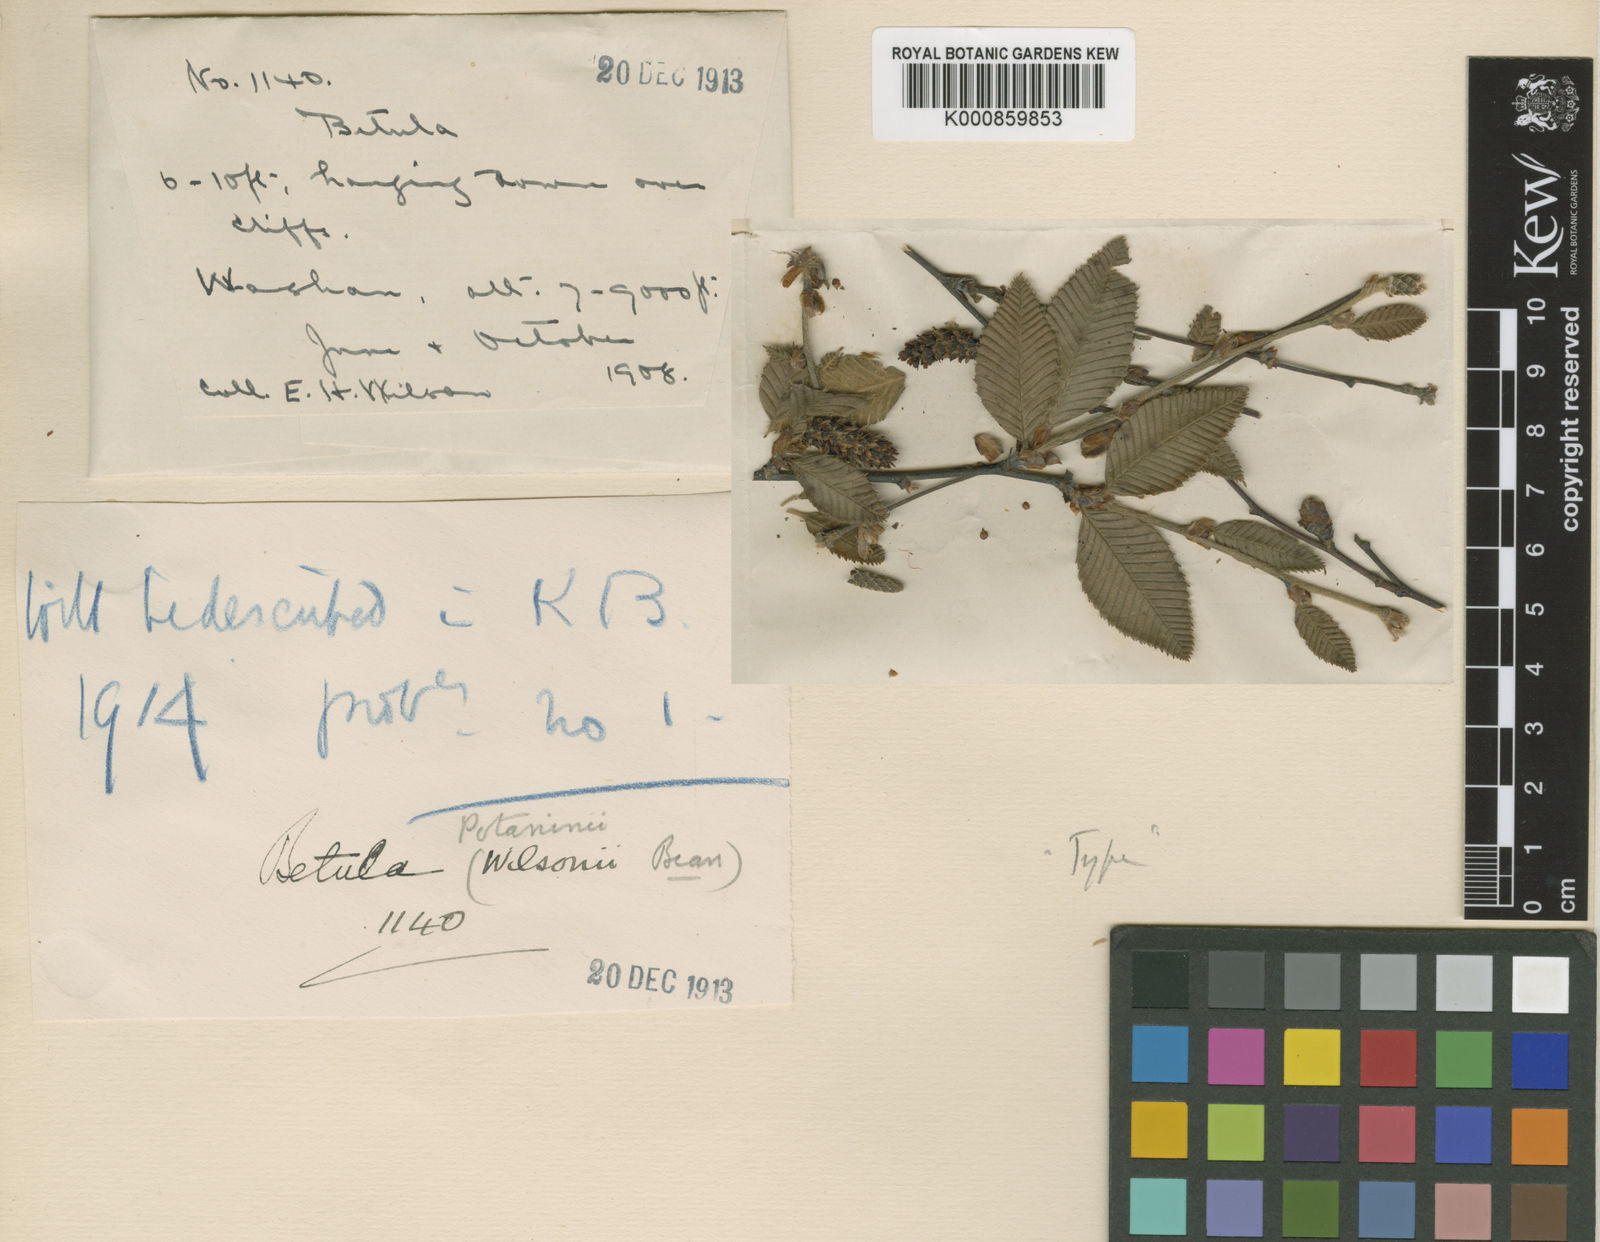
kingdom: Plantae
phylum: Tracheophyta
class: Magnoliopsida
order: Fagales
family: Betulaceae
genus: Betula
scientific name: Betula potaninii
